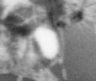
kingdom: Animalia
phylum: Arthropoda
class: Copepoda
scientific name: Copepoda
